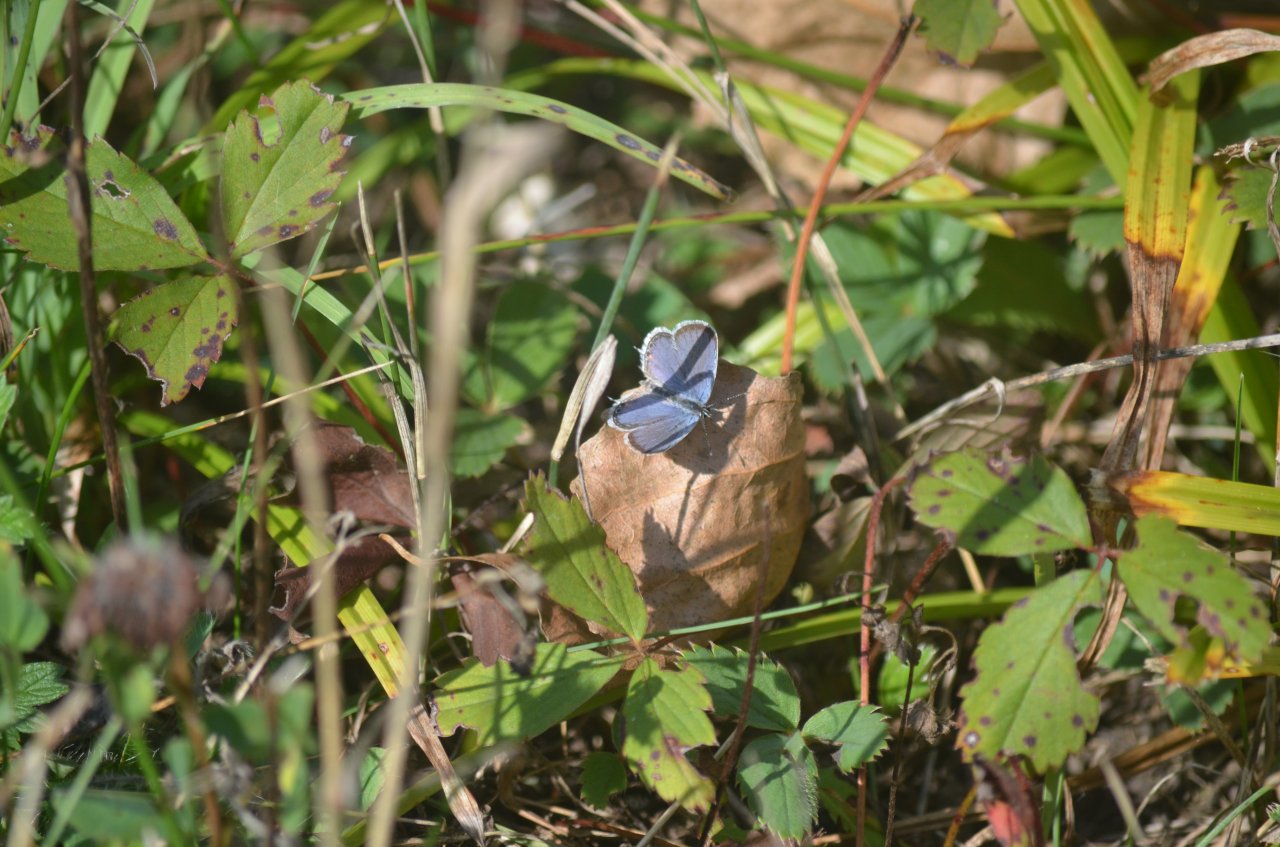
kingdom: Animalia
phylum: Arthropoda
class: Insecta
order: Lepidoptera
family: Lycaenidae
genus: Elkalyce
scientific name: Elkalyce comyntas
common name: Eastern Tailed-Blue
